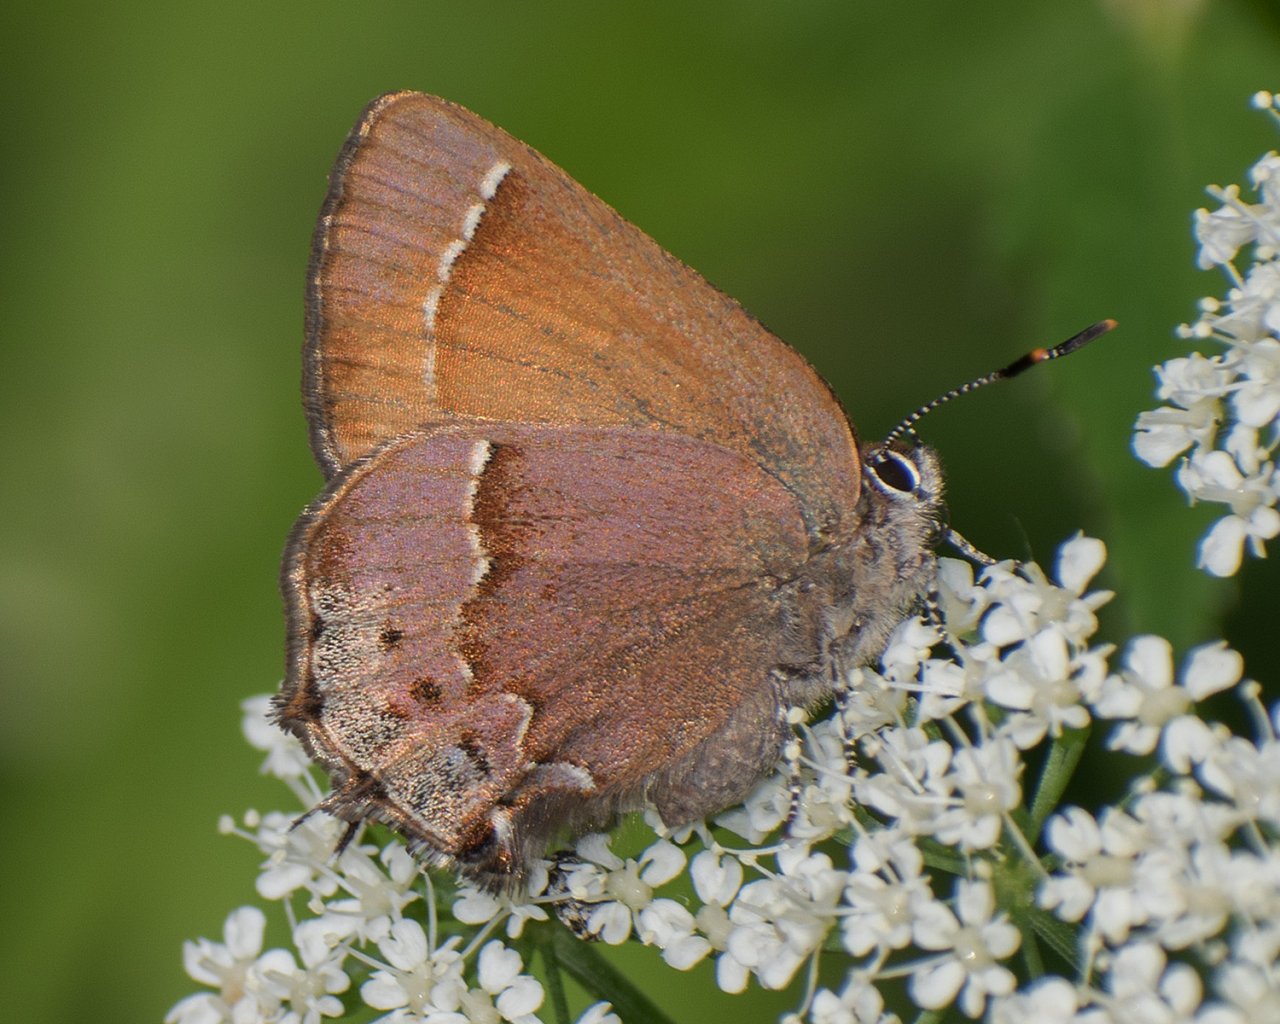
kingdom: Animalia
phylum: Arthropoda
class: Insecta
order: Lepidoptera
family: Lycaenidae
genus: Mitoura
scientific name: Mitoura nelsoni
